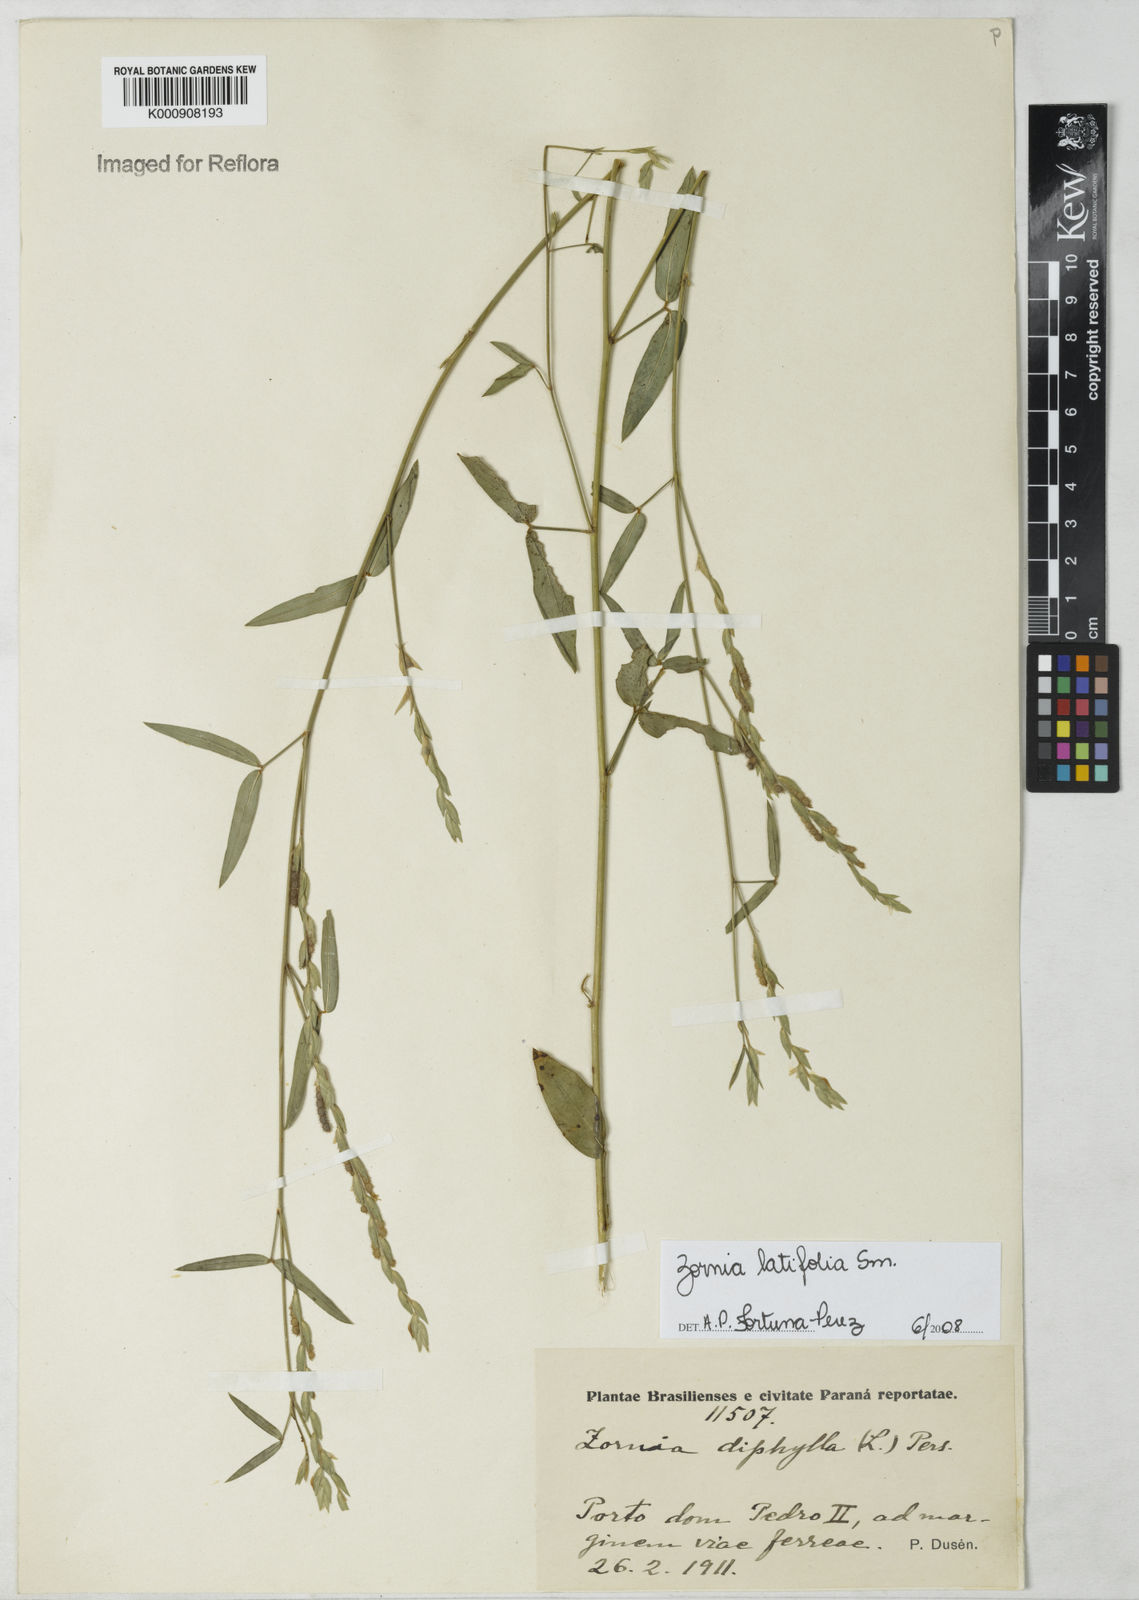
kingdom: Plantae
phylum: Tracheophyta
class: Magnoliopsida
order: Fabales
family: Fabaceae
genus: Zornia
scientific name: Zornia latifolia
